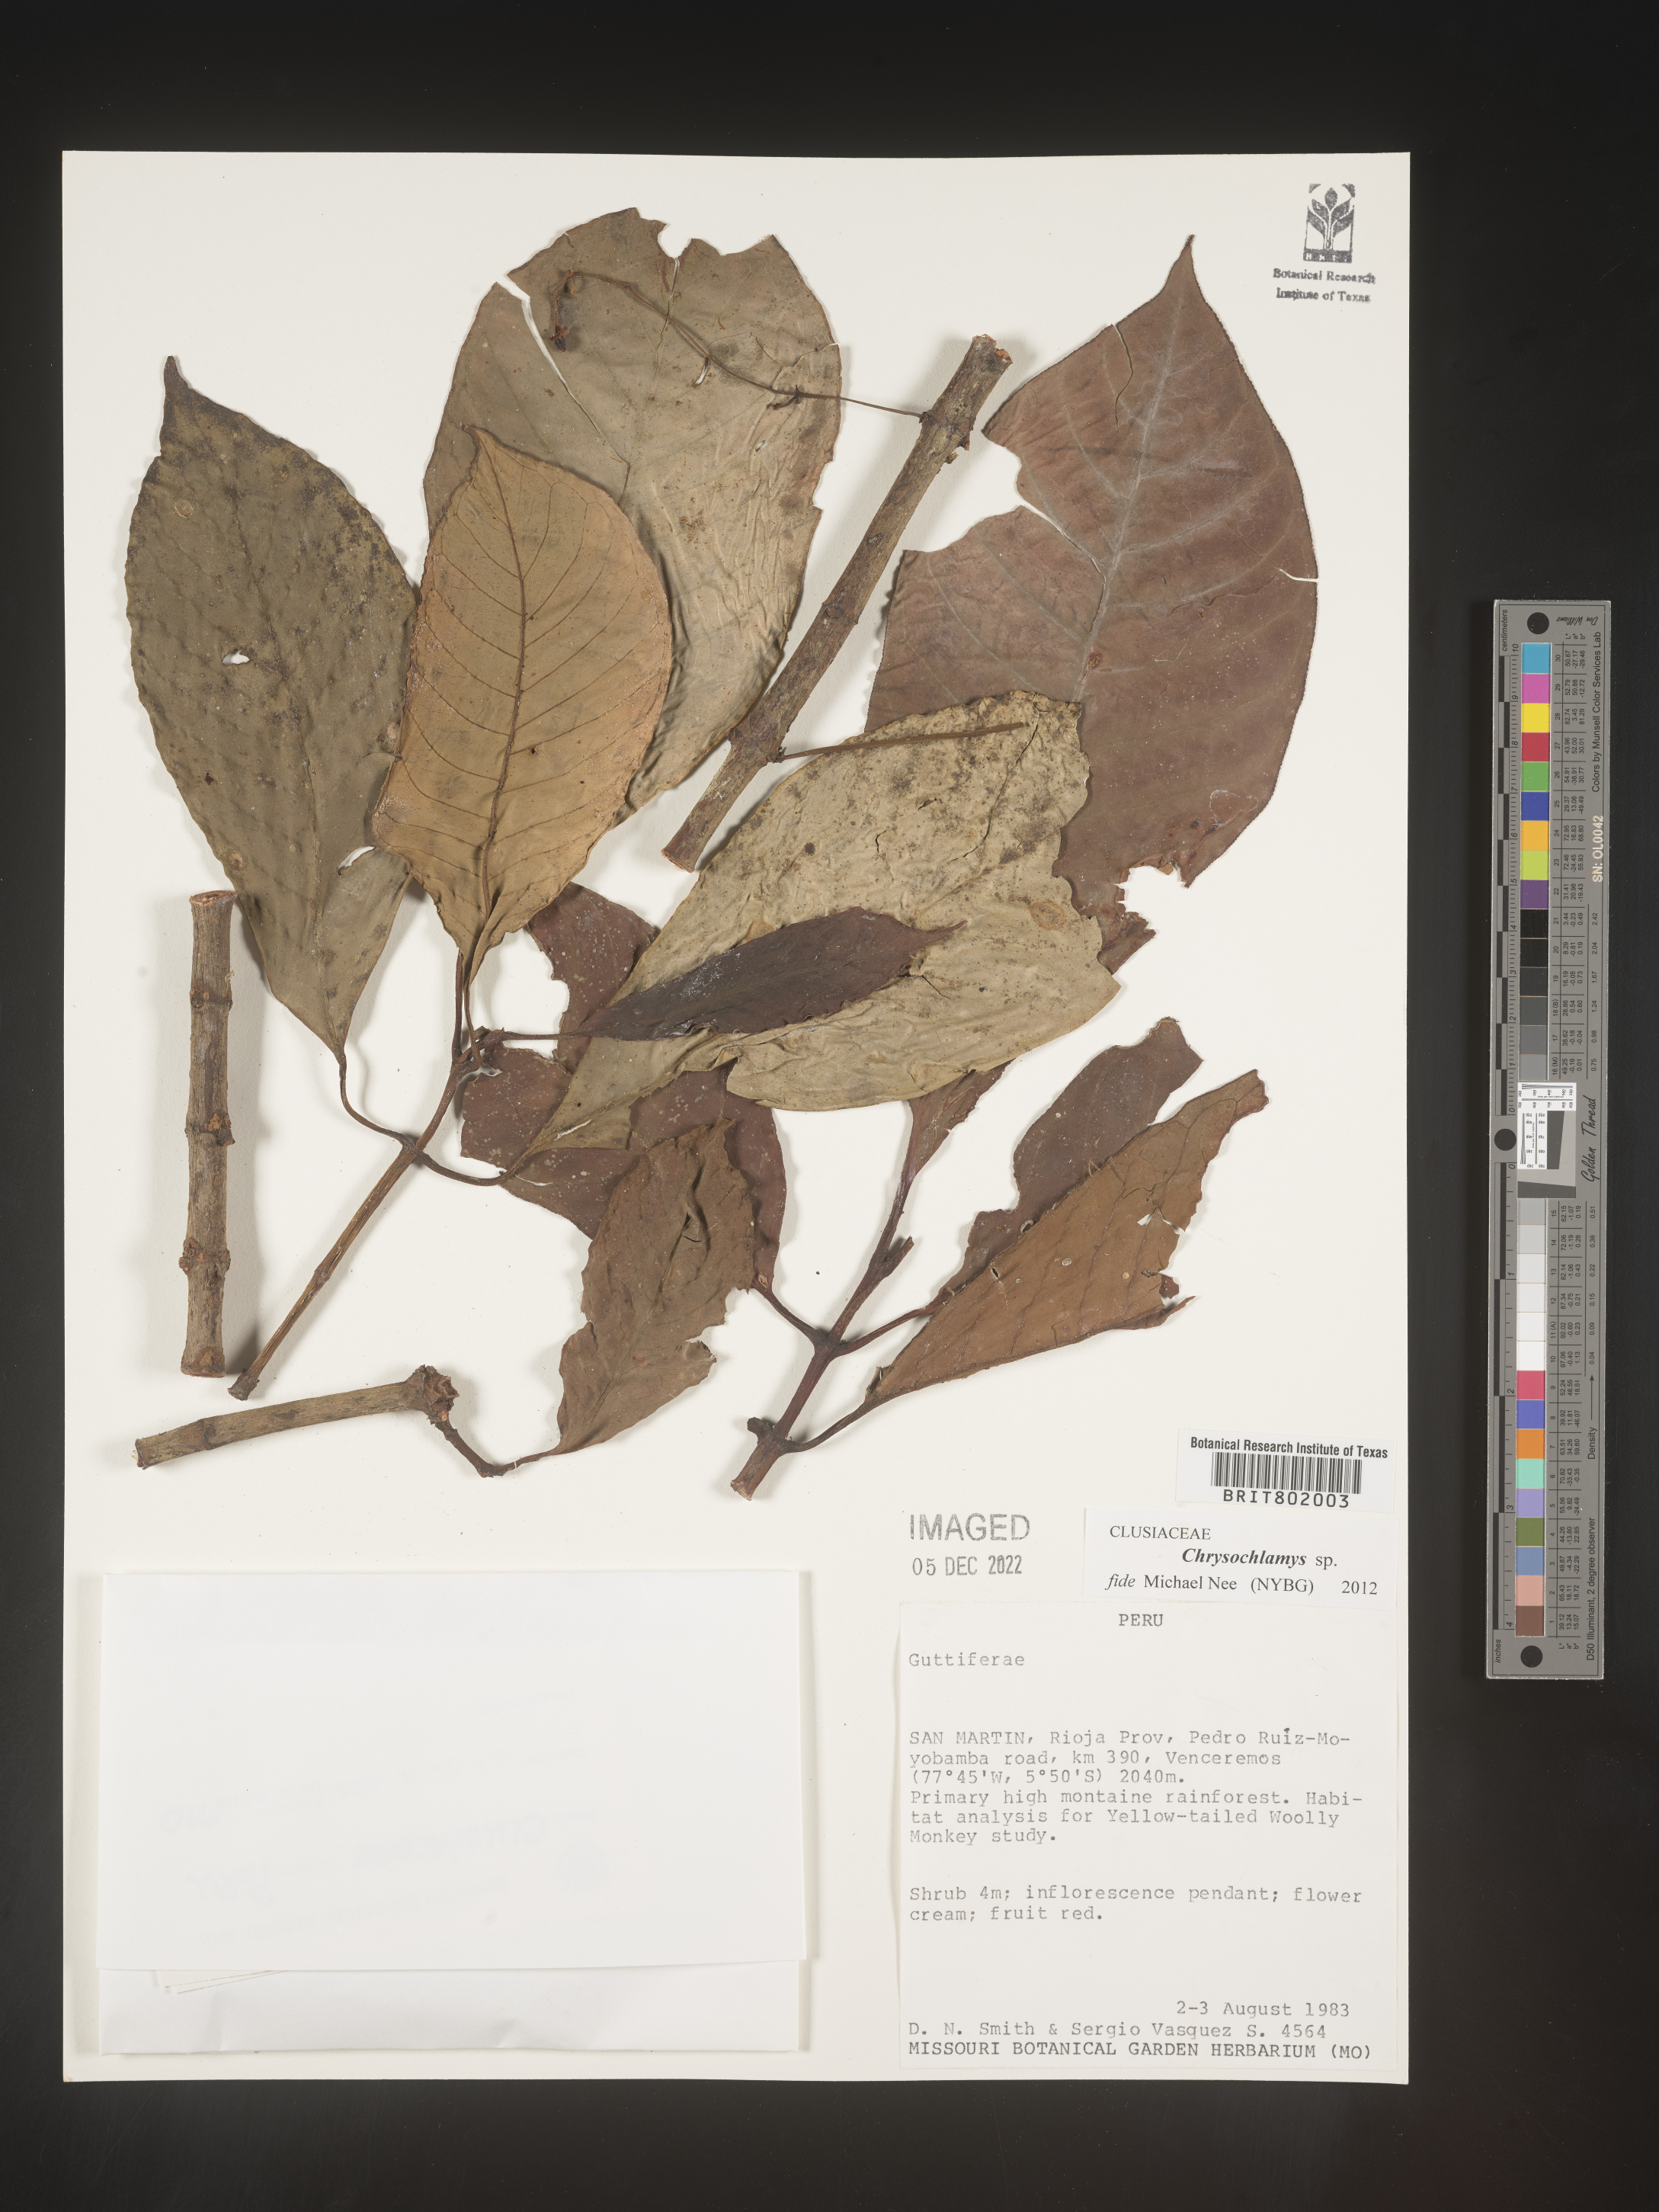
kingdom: Plantae
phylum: Tracheophyta
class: Magnoliopsida
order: Malpighiales
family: Clusiaceae
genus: Chrysochlamys
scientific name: Chrysochlamys
